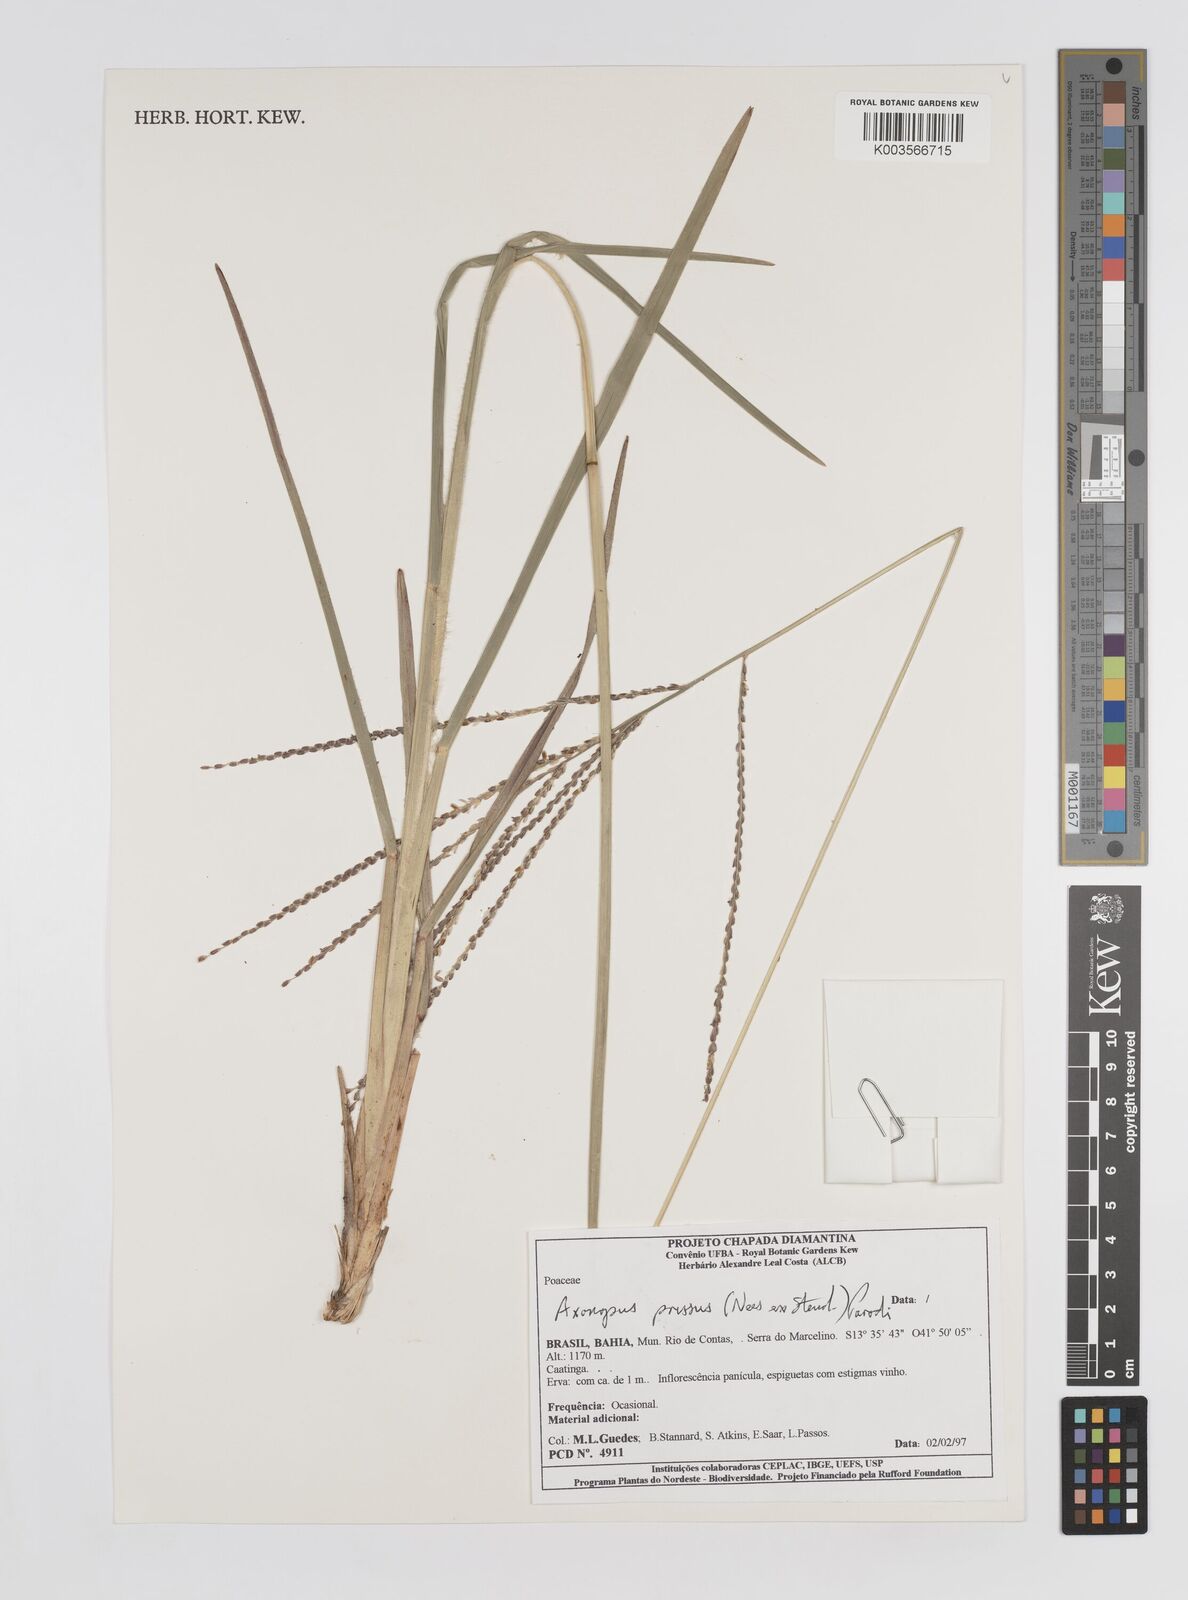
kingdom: Plantae
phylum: Tracheophyta
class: Liliopsida
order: Poales
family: Poaceae
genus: Axonopus
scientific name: Axonopus pressus
